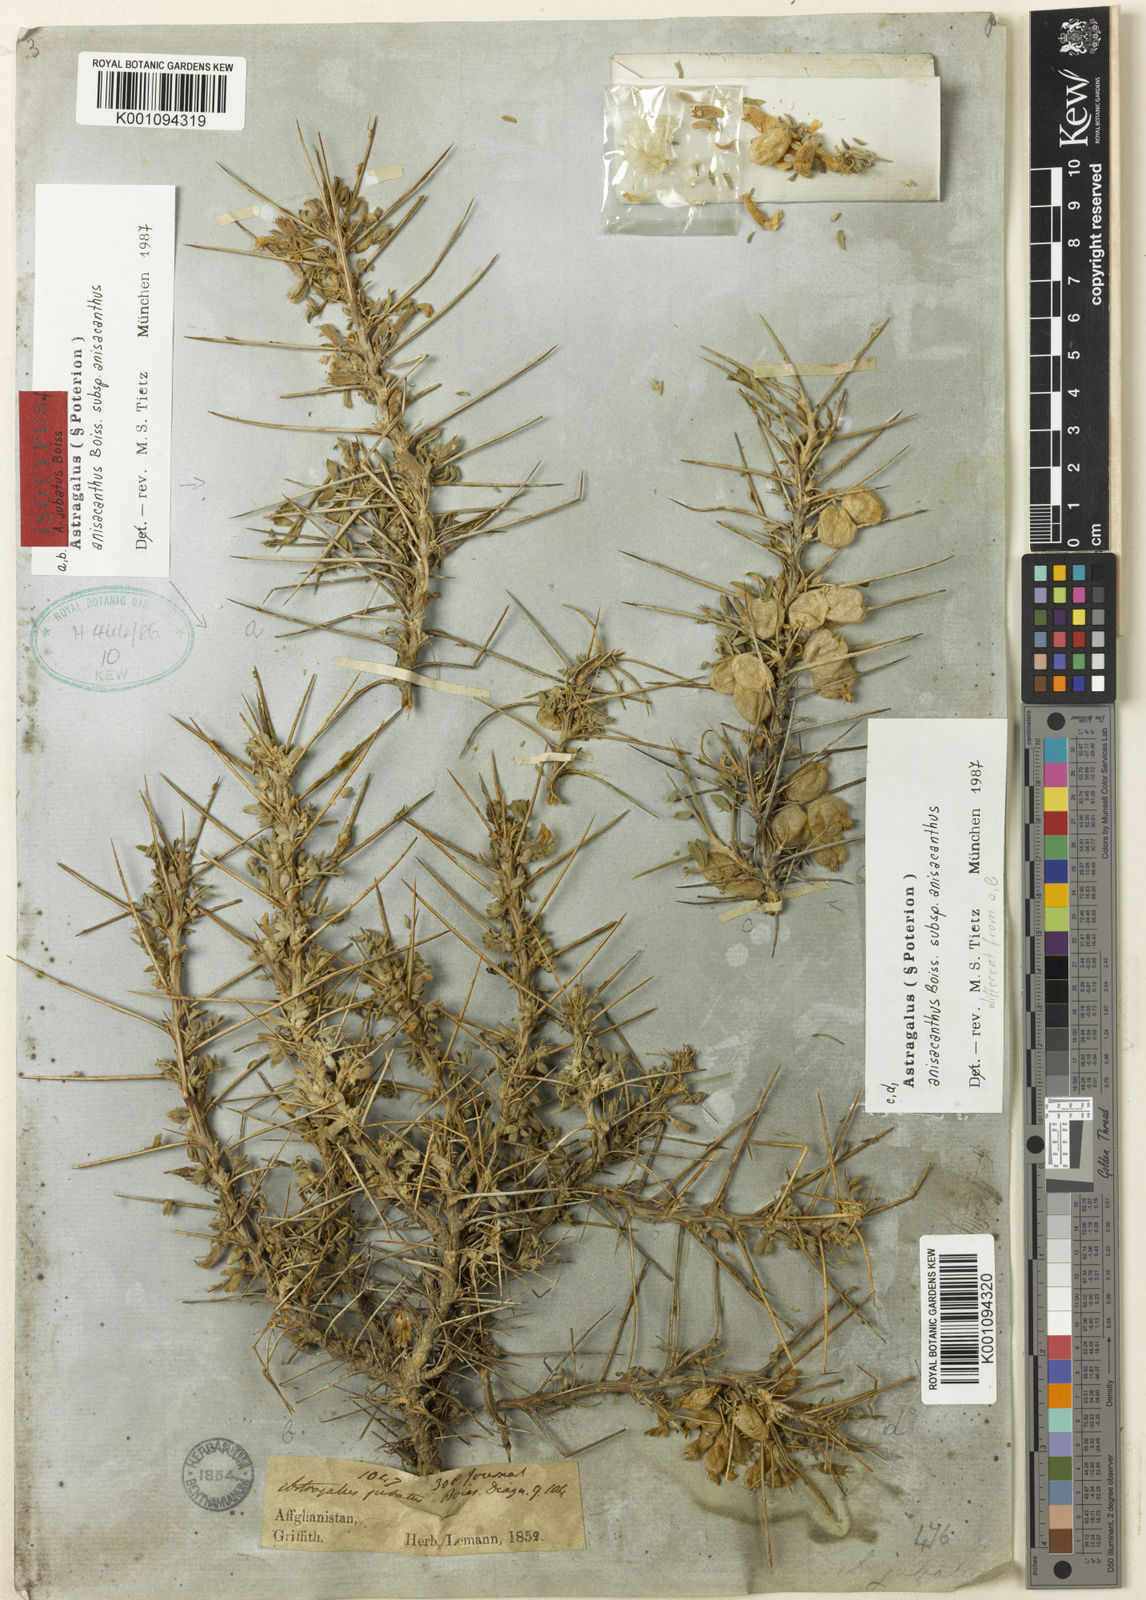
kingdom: Plantae
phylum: Tracheophyta
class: Magnoliopsida
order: Fabales
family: Fabaceae
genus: Astragalus
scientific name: Astragalus anisacanthus
